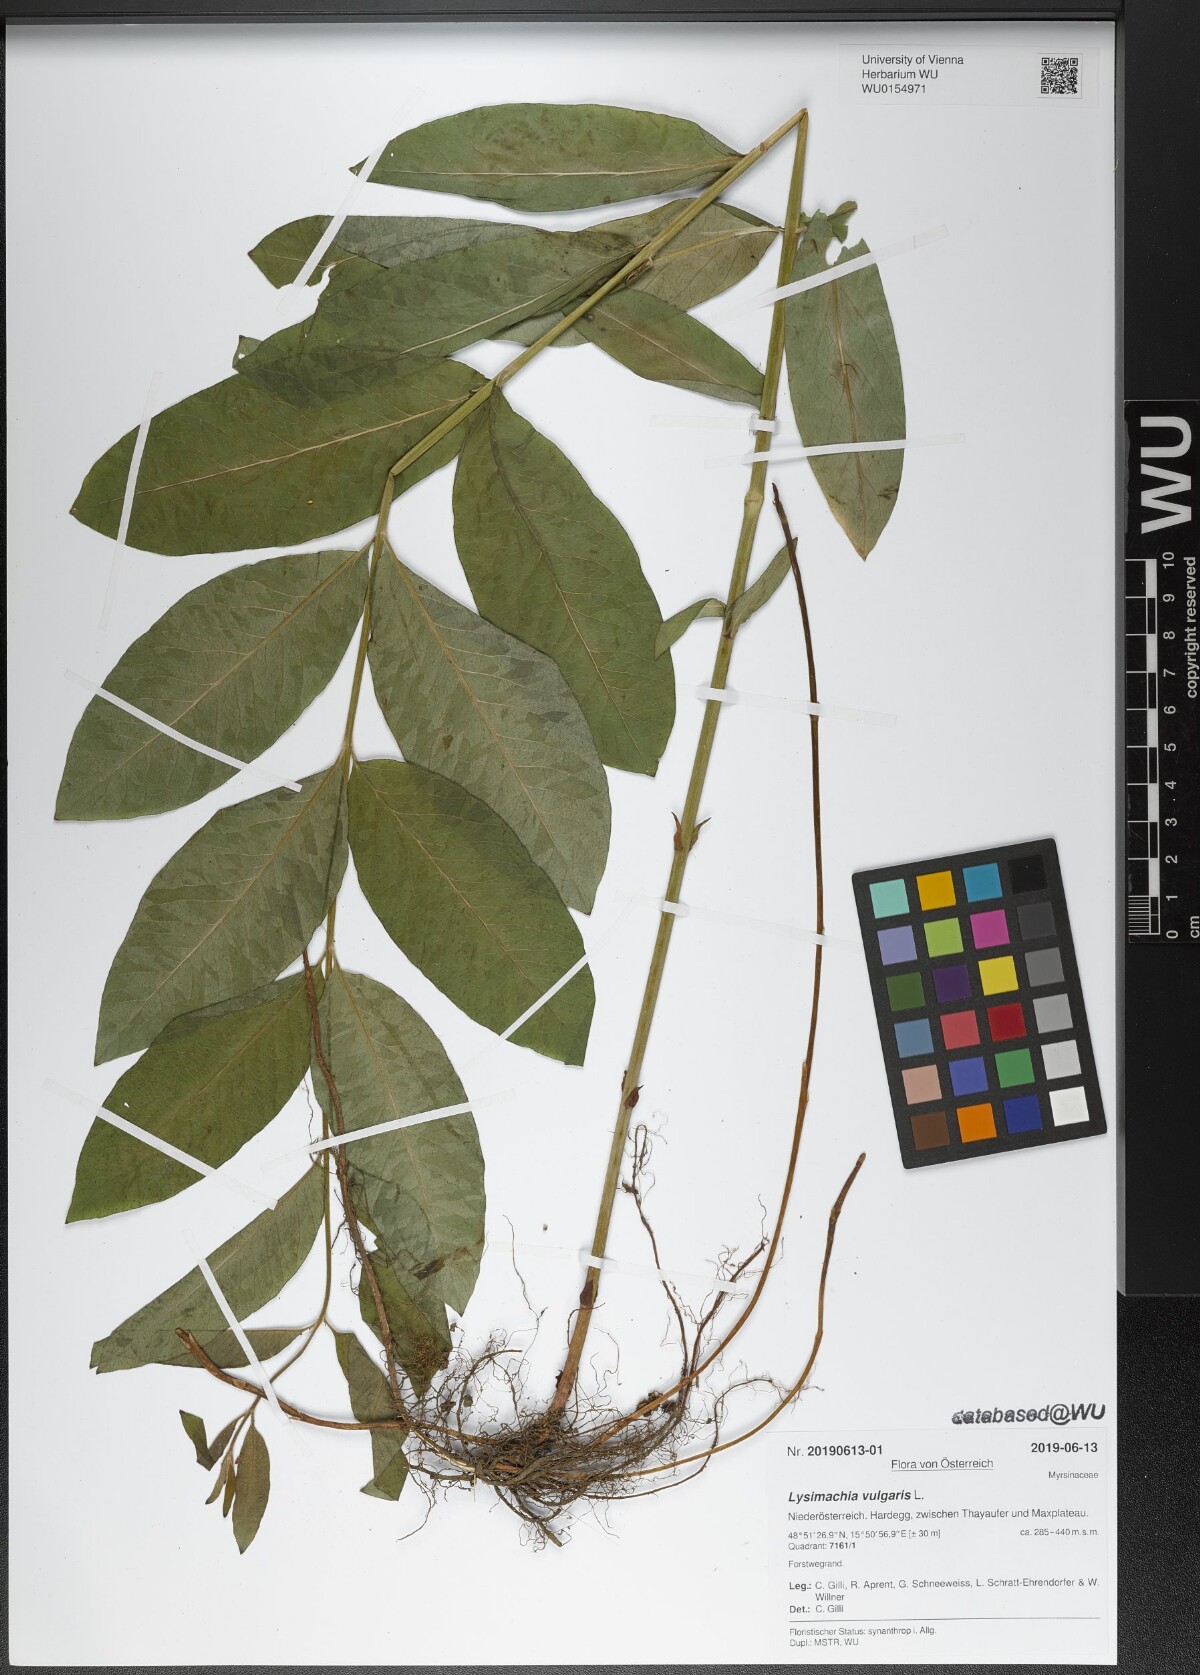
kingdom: Plantae
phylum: Tracheophyta
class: Magnoliopsida
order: Ericales
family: Primulaceae
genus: Lysimachia
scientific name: Lysimachia vulgaris
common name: Yellow loosestrife
